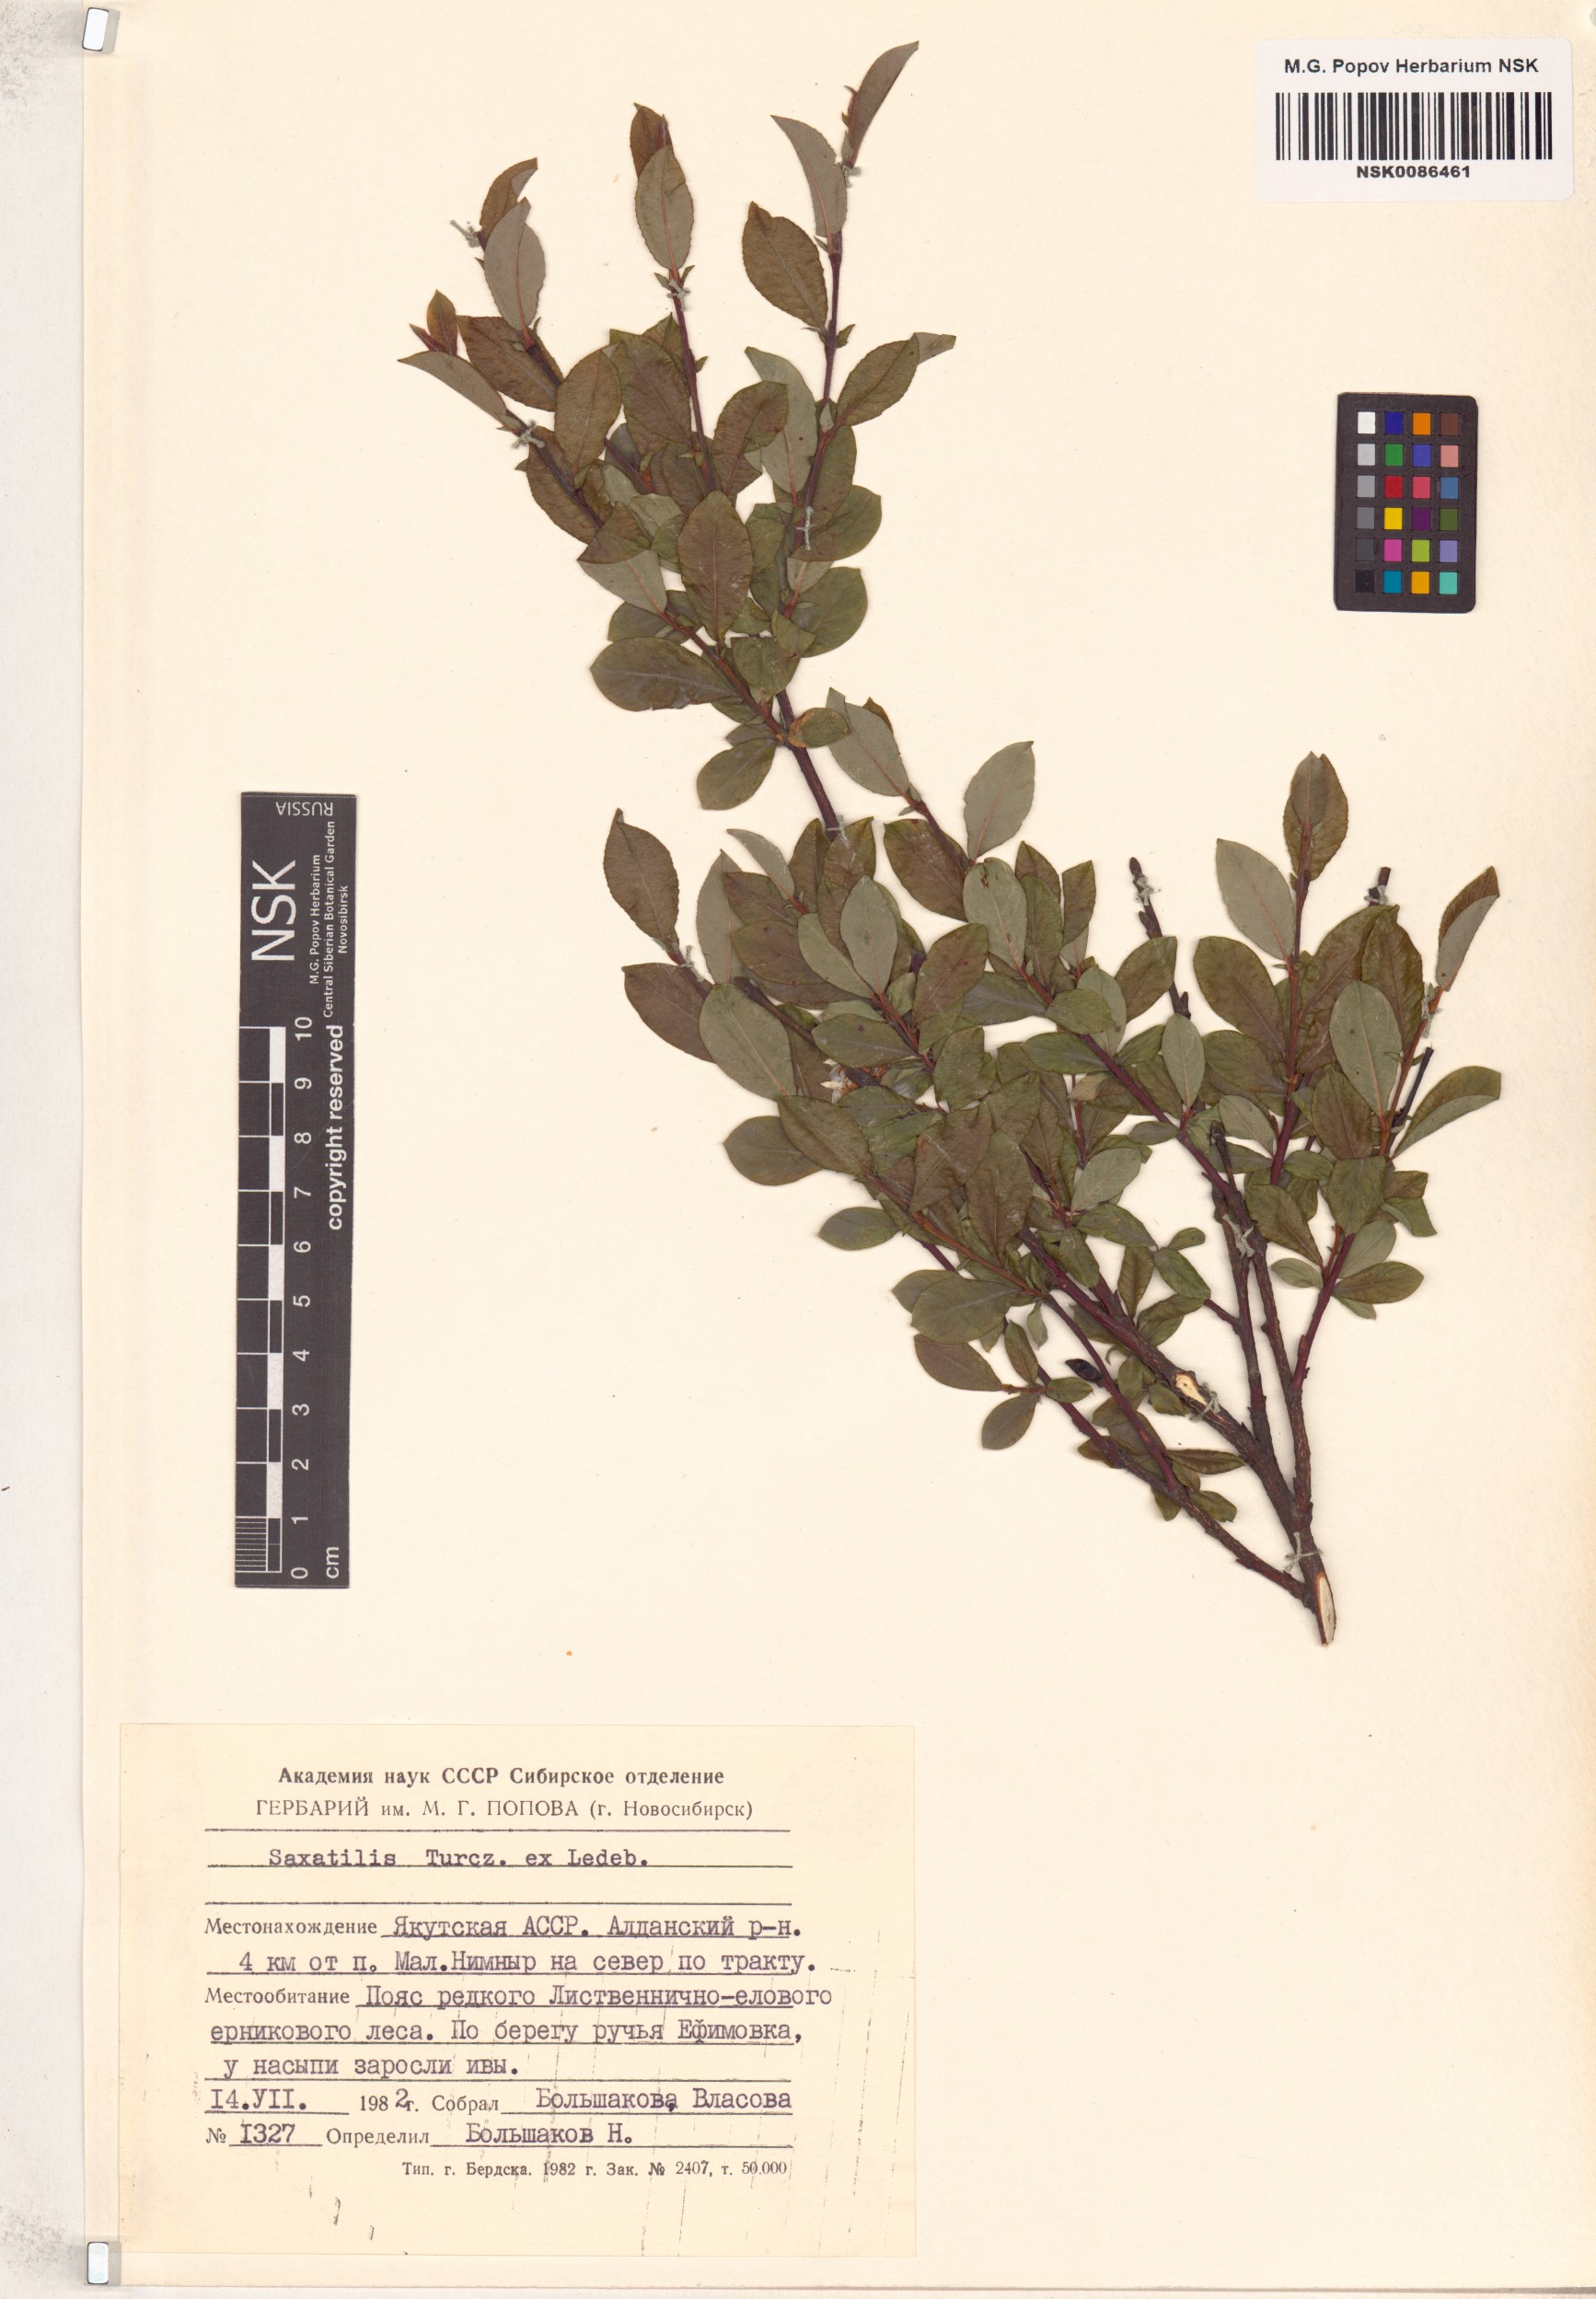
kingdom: Plantae
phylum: Tracheophyta
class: Magnoliopsida
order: Malpighiales
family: Salicaceae
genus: Salix
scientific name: Salix saxatilis
